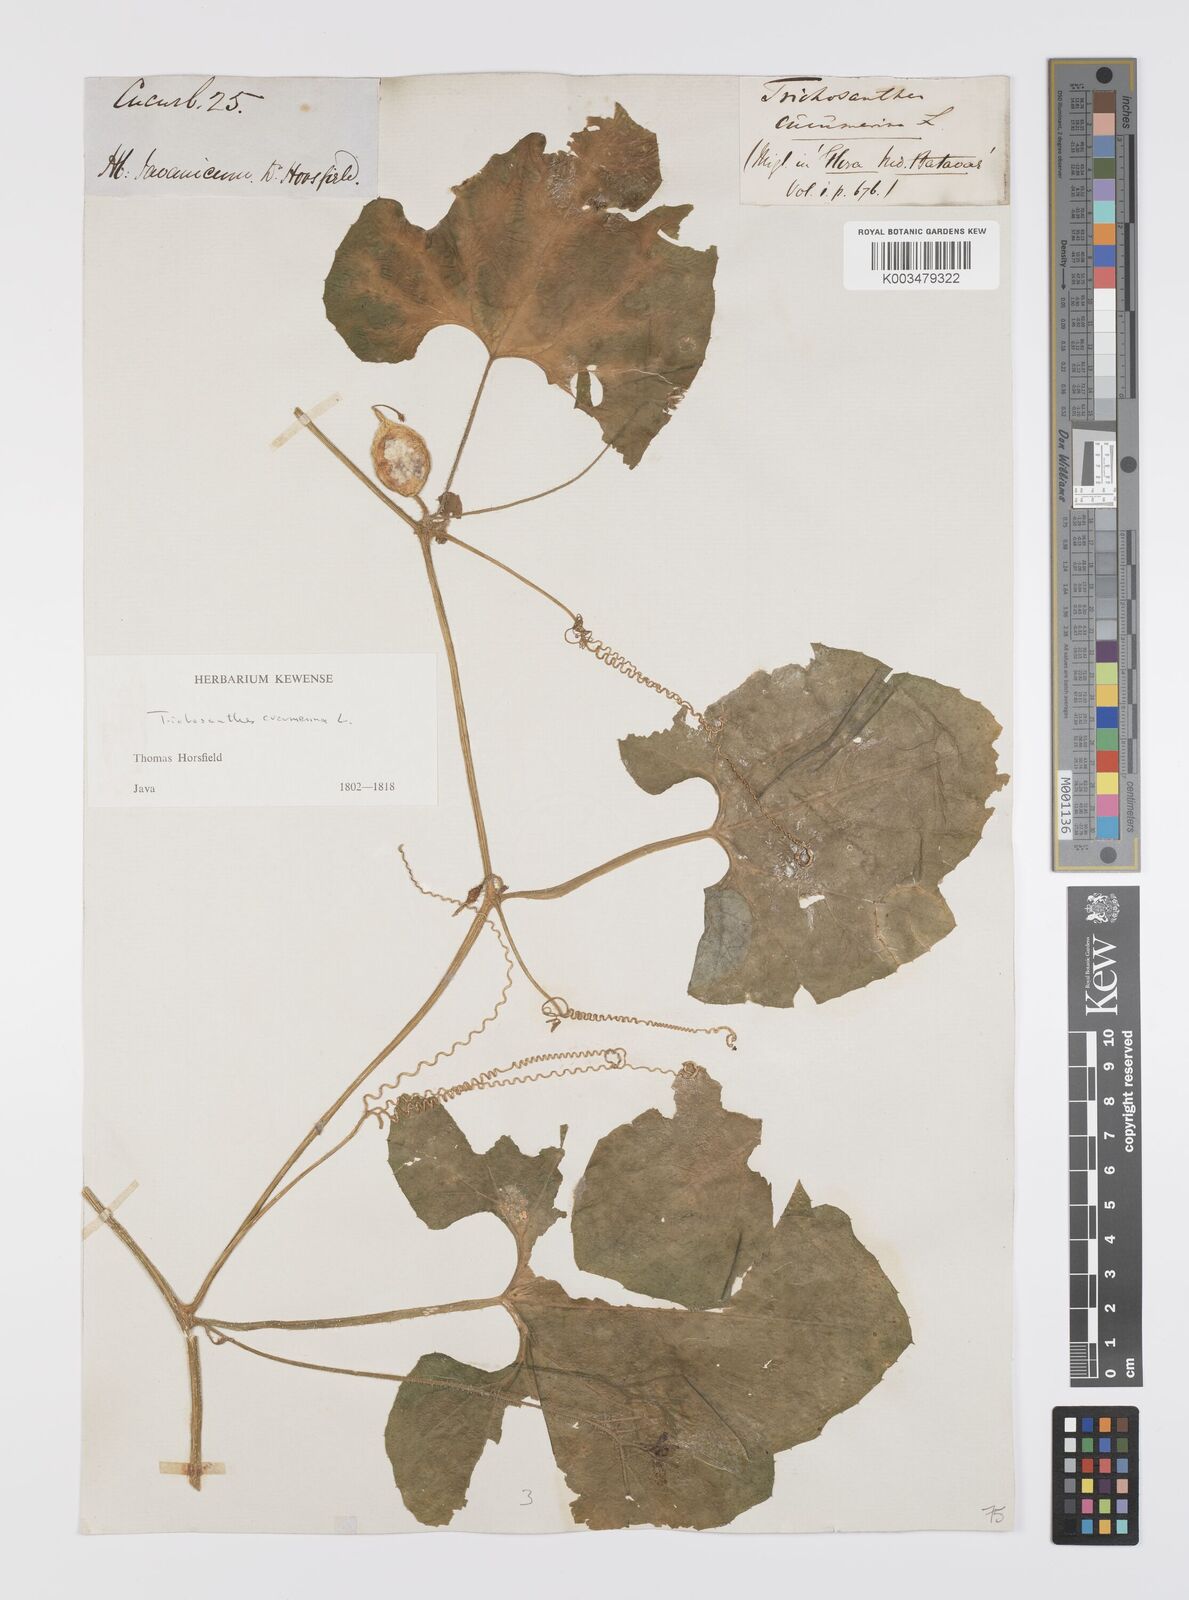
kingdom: Plantae
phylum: Tracheophyta
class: Magnoliopsida
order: Cucurbitales
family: Cucurbitaceae
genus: Trichosanthes
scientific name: Trichosanthes cucumerina
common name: Snakegourd
